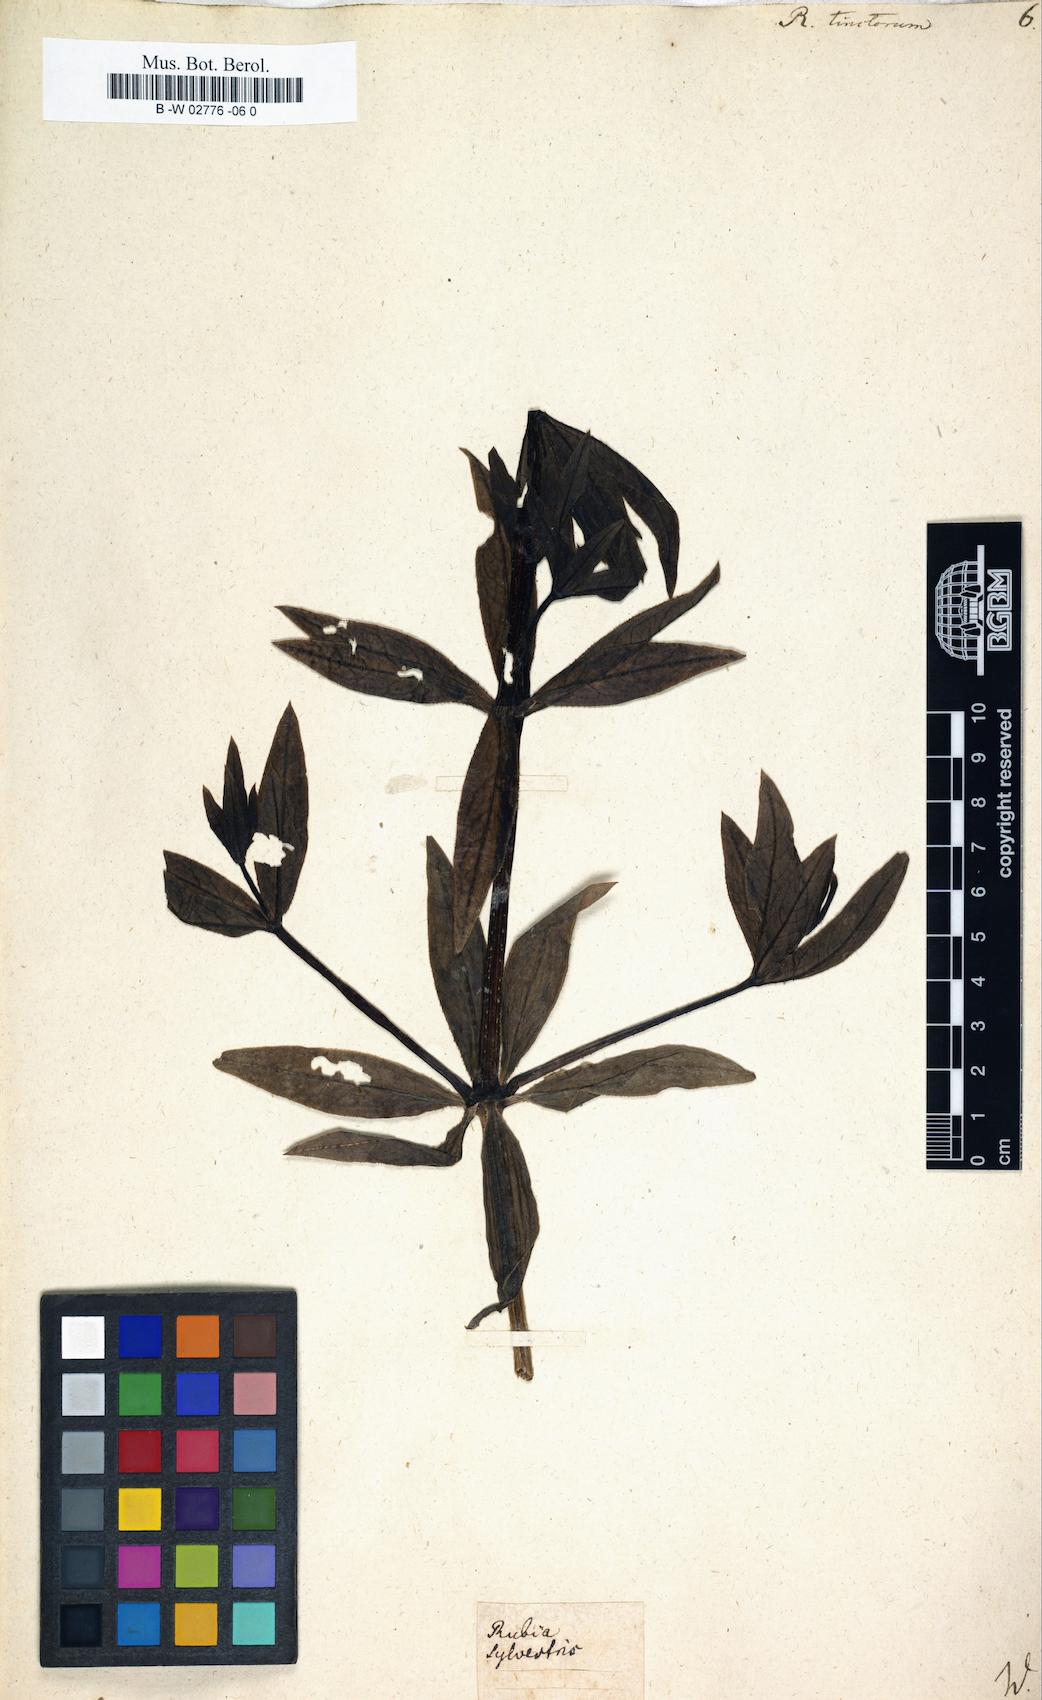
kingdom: Plantae
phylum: Tracheophyta
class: Magnoliopsida
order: Gentianales
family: Rubiaceae
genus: Rubia
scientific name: Rubia tinctorum
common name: Dyer's madder
